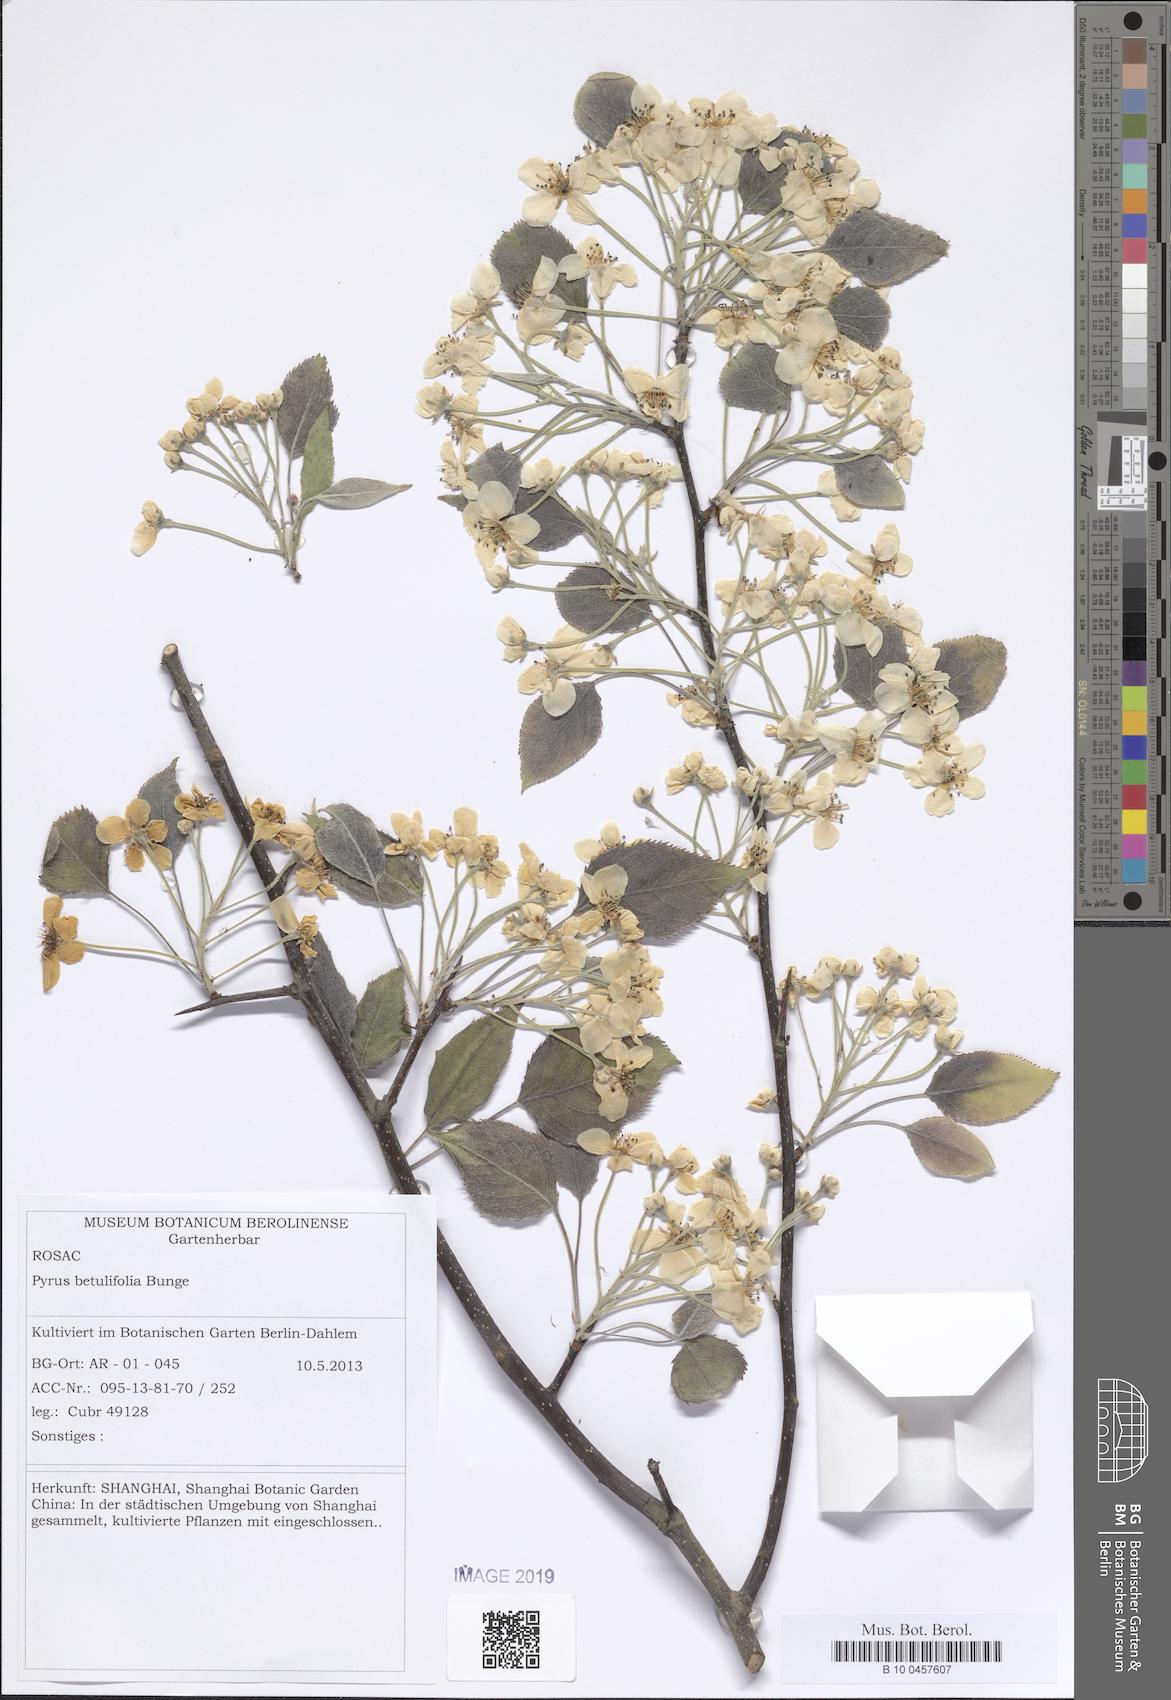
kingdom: Plantae
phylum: Tracheophyta
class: Magnoliopsida
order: Rosales
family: Rosaceae
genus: Pyrus
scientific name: Pyrus betulifolia
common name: Birch-leaf pear
